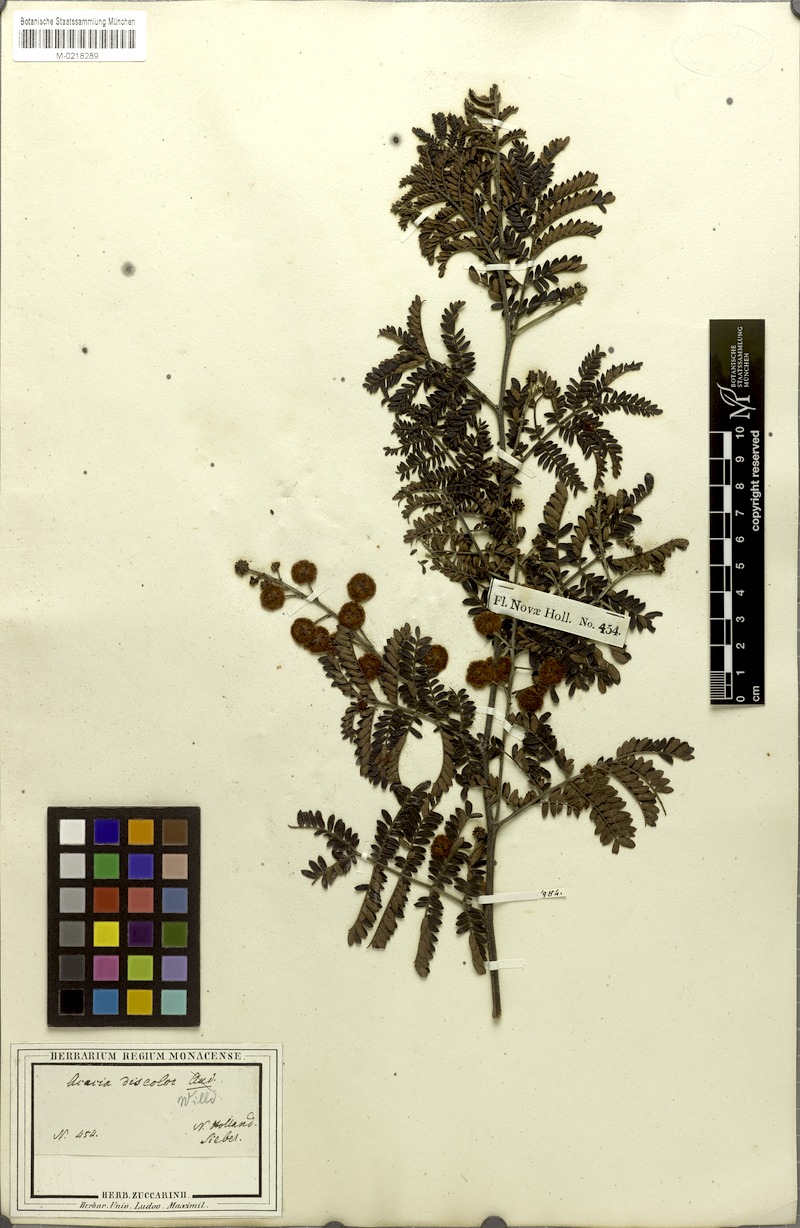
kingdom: Plantae
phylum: Tracheophyta
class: Magnoliopsida
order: Fabales
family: Fabaceae
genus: Acacia
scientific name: Acacia terminalis
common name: Cedar wattle
